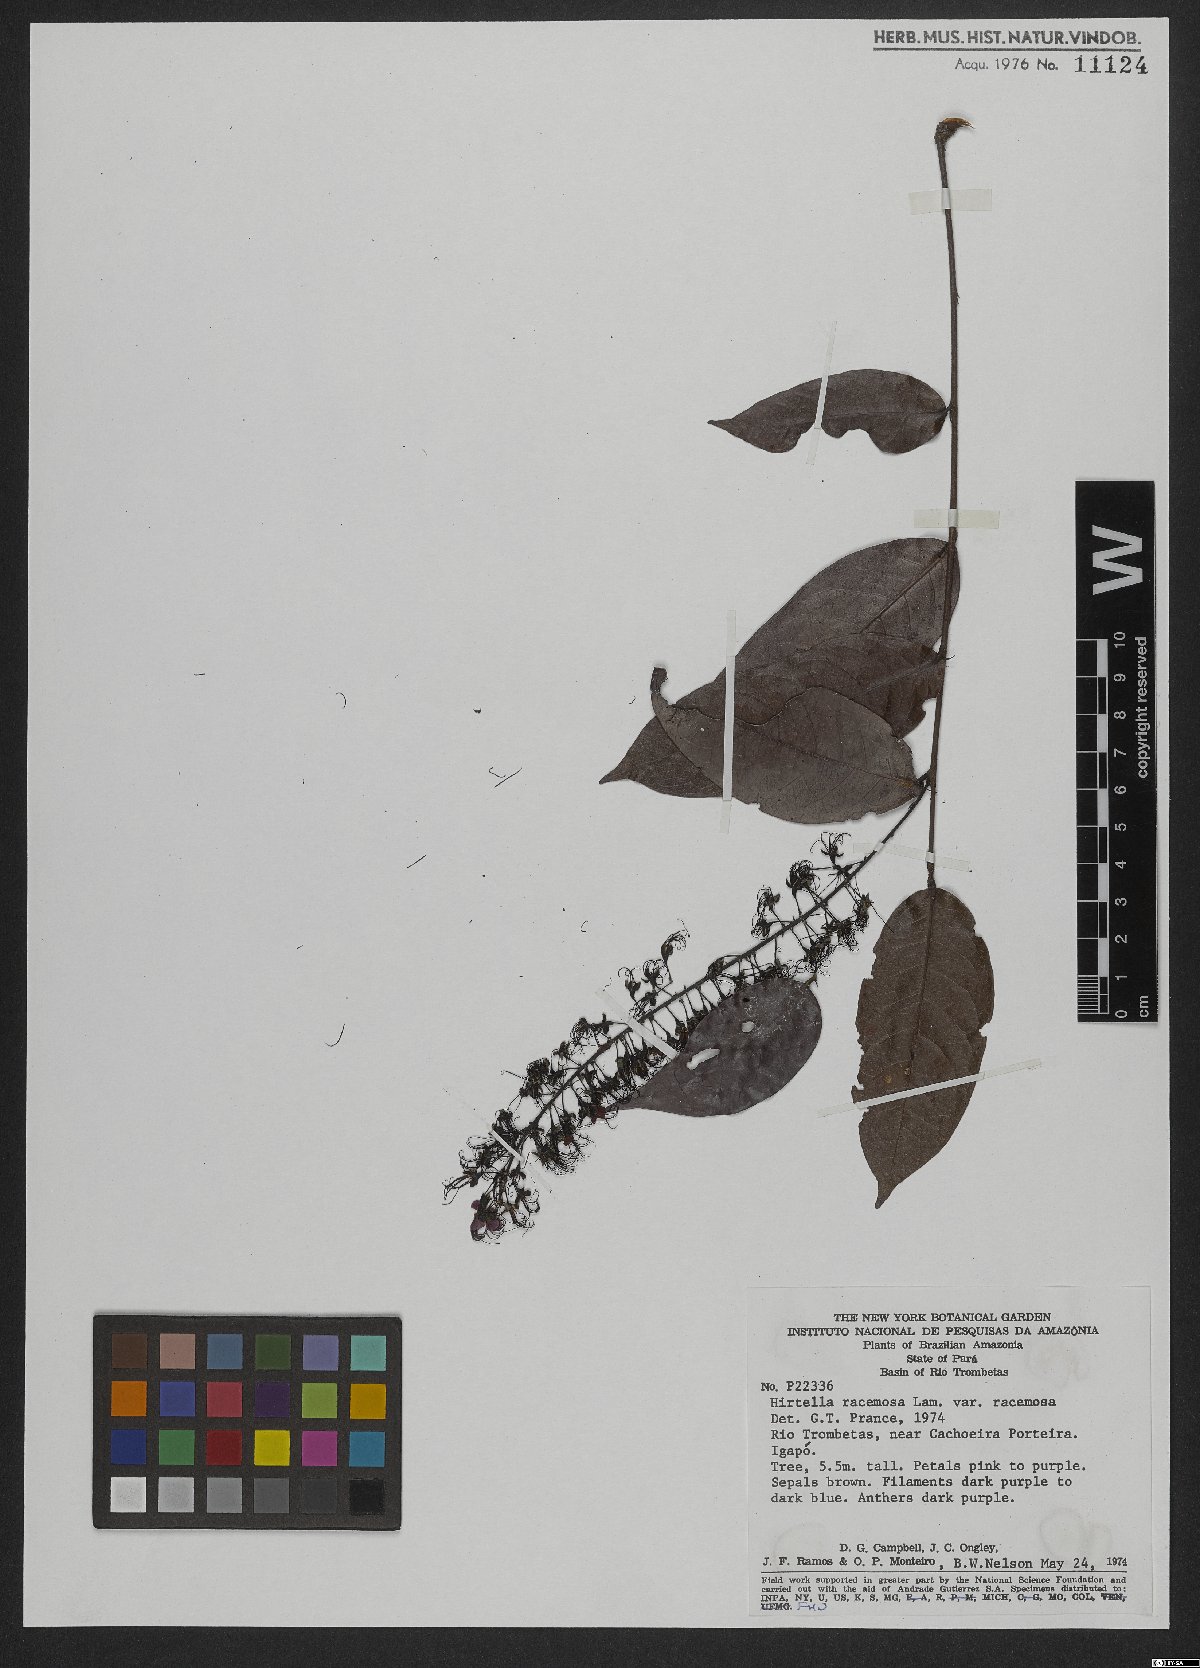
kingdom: Plantae
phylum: Tracheophyta
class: Magnoliopsida
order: Malpighiales
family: Chrysobalanaceae
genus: Hirtella
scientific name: Hirtella racemosa
